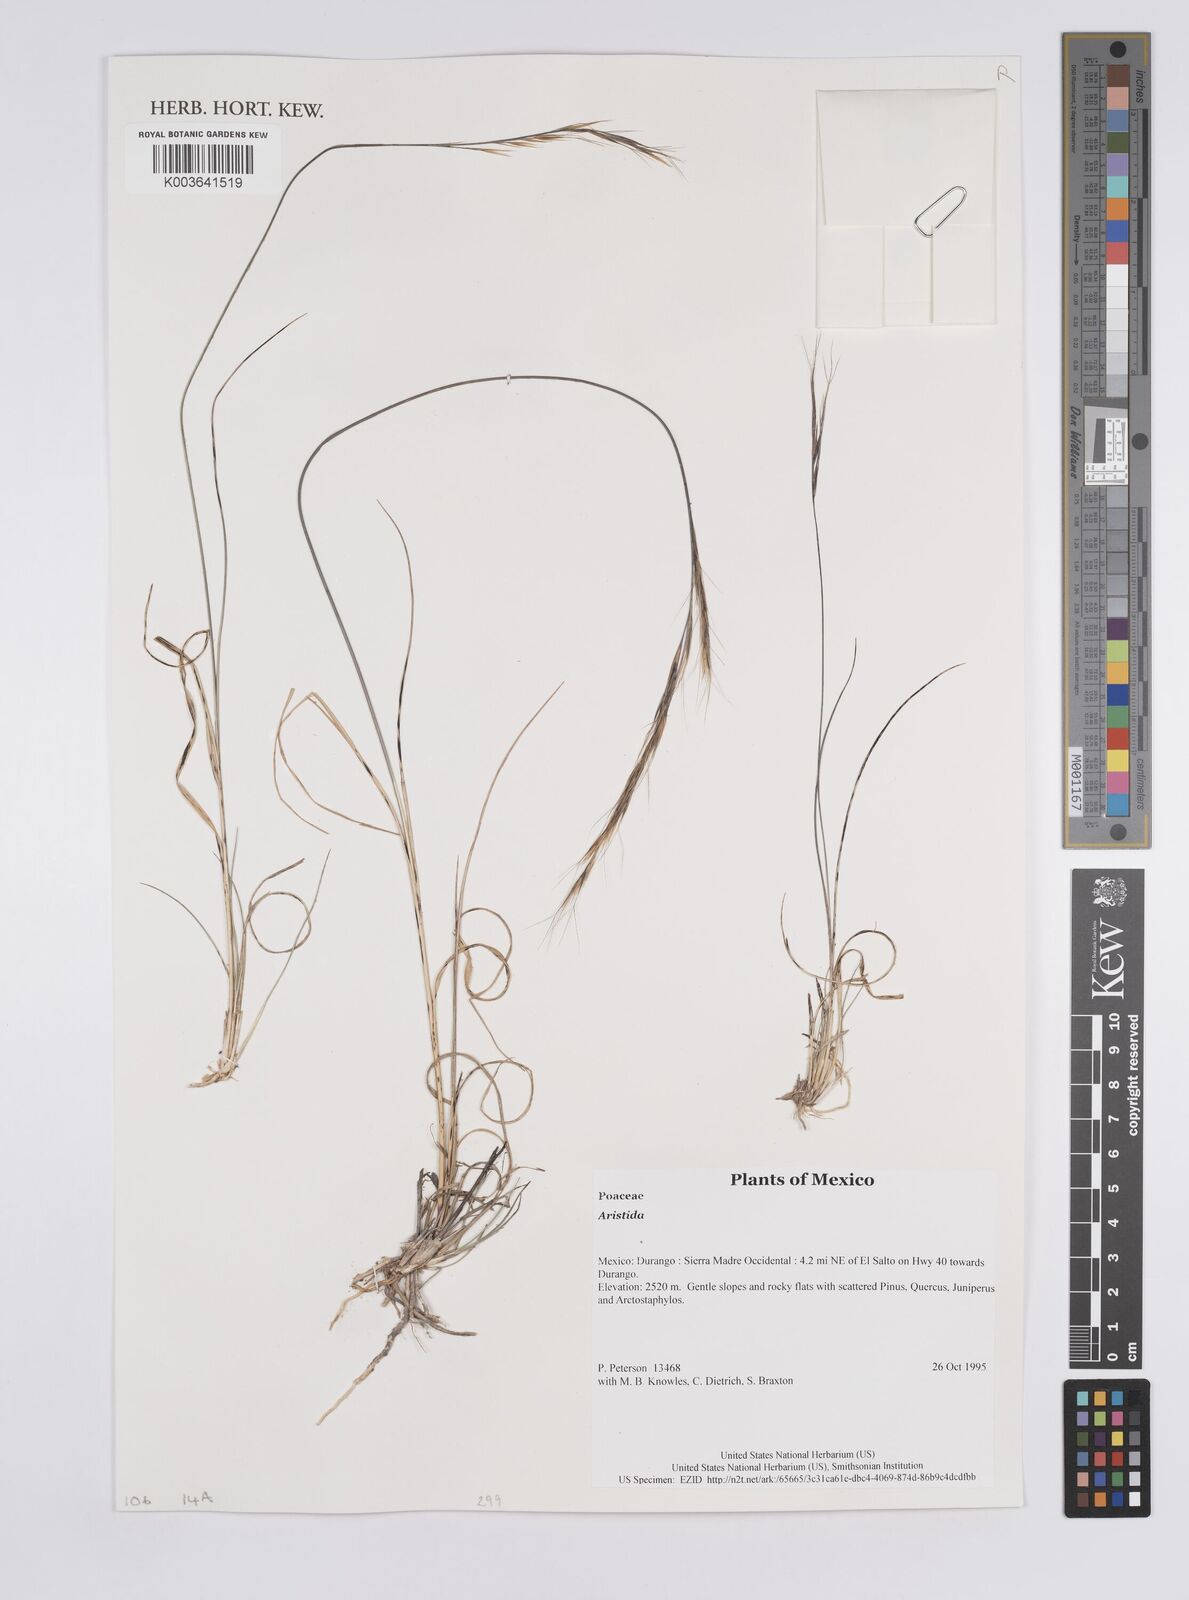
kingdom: Plantae
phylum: Tracheophyta
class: Liliopsida
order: Poales
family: Poaceae
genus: Aristida
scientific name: Aristida
